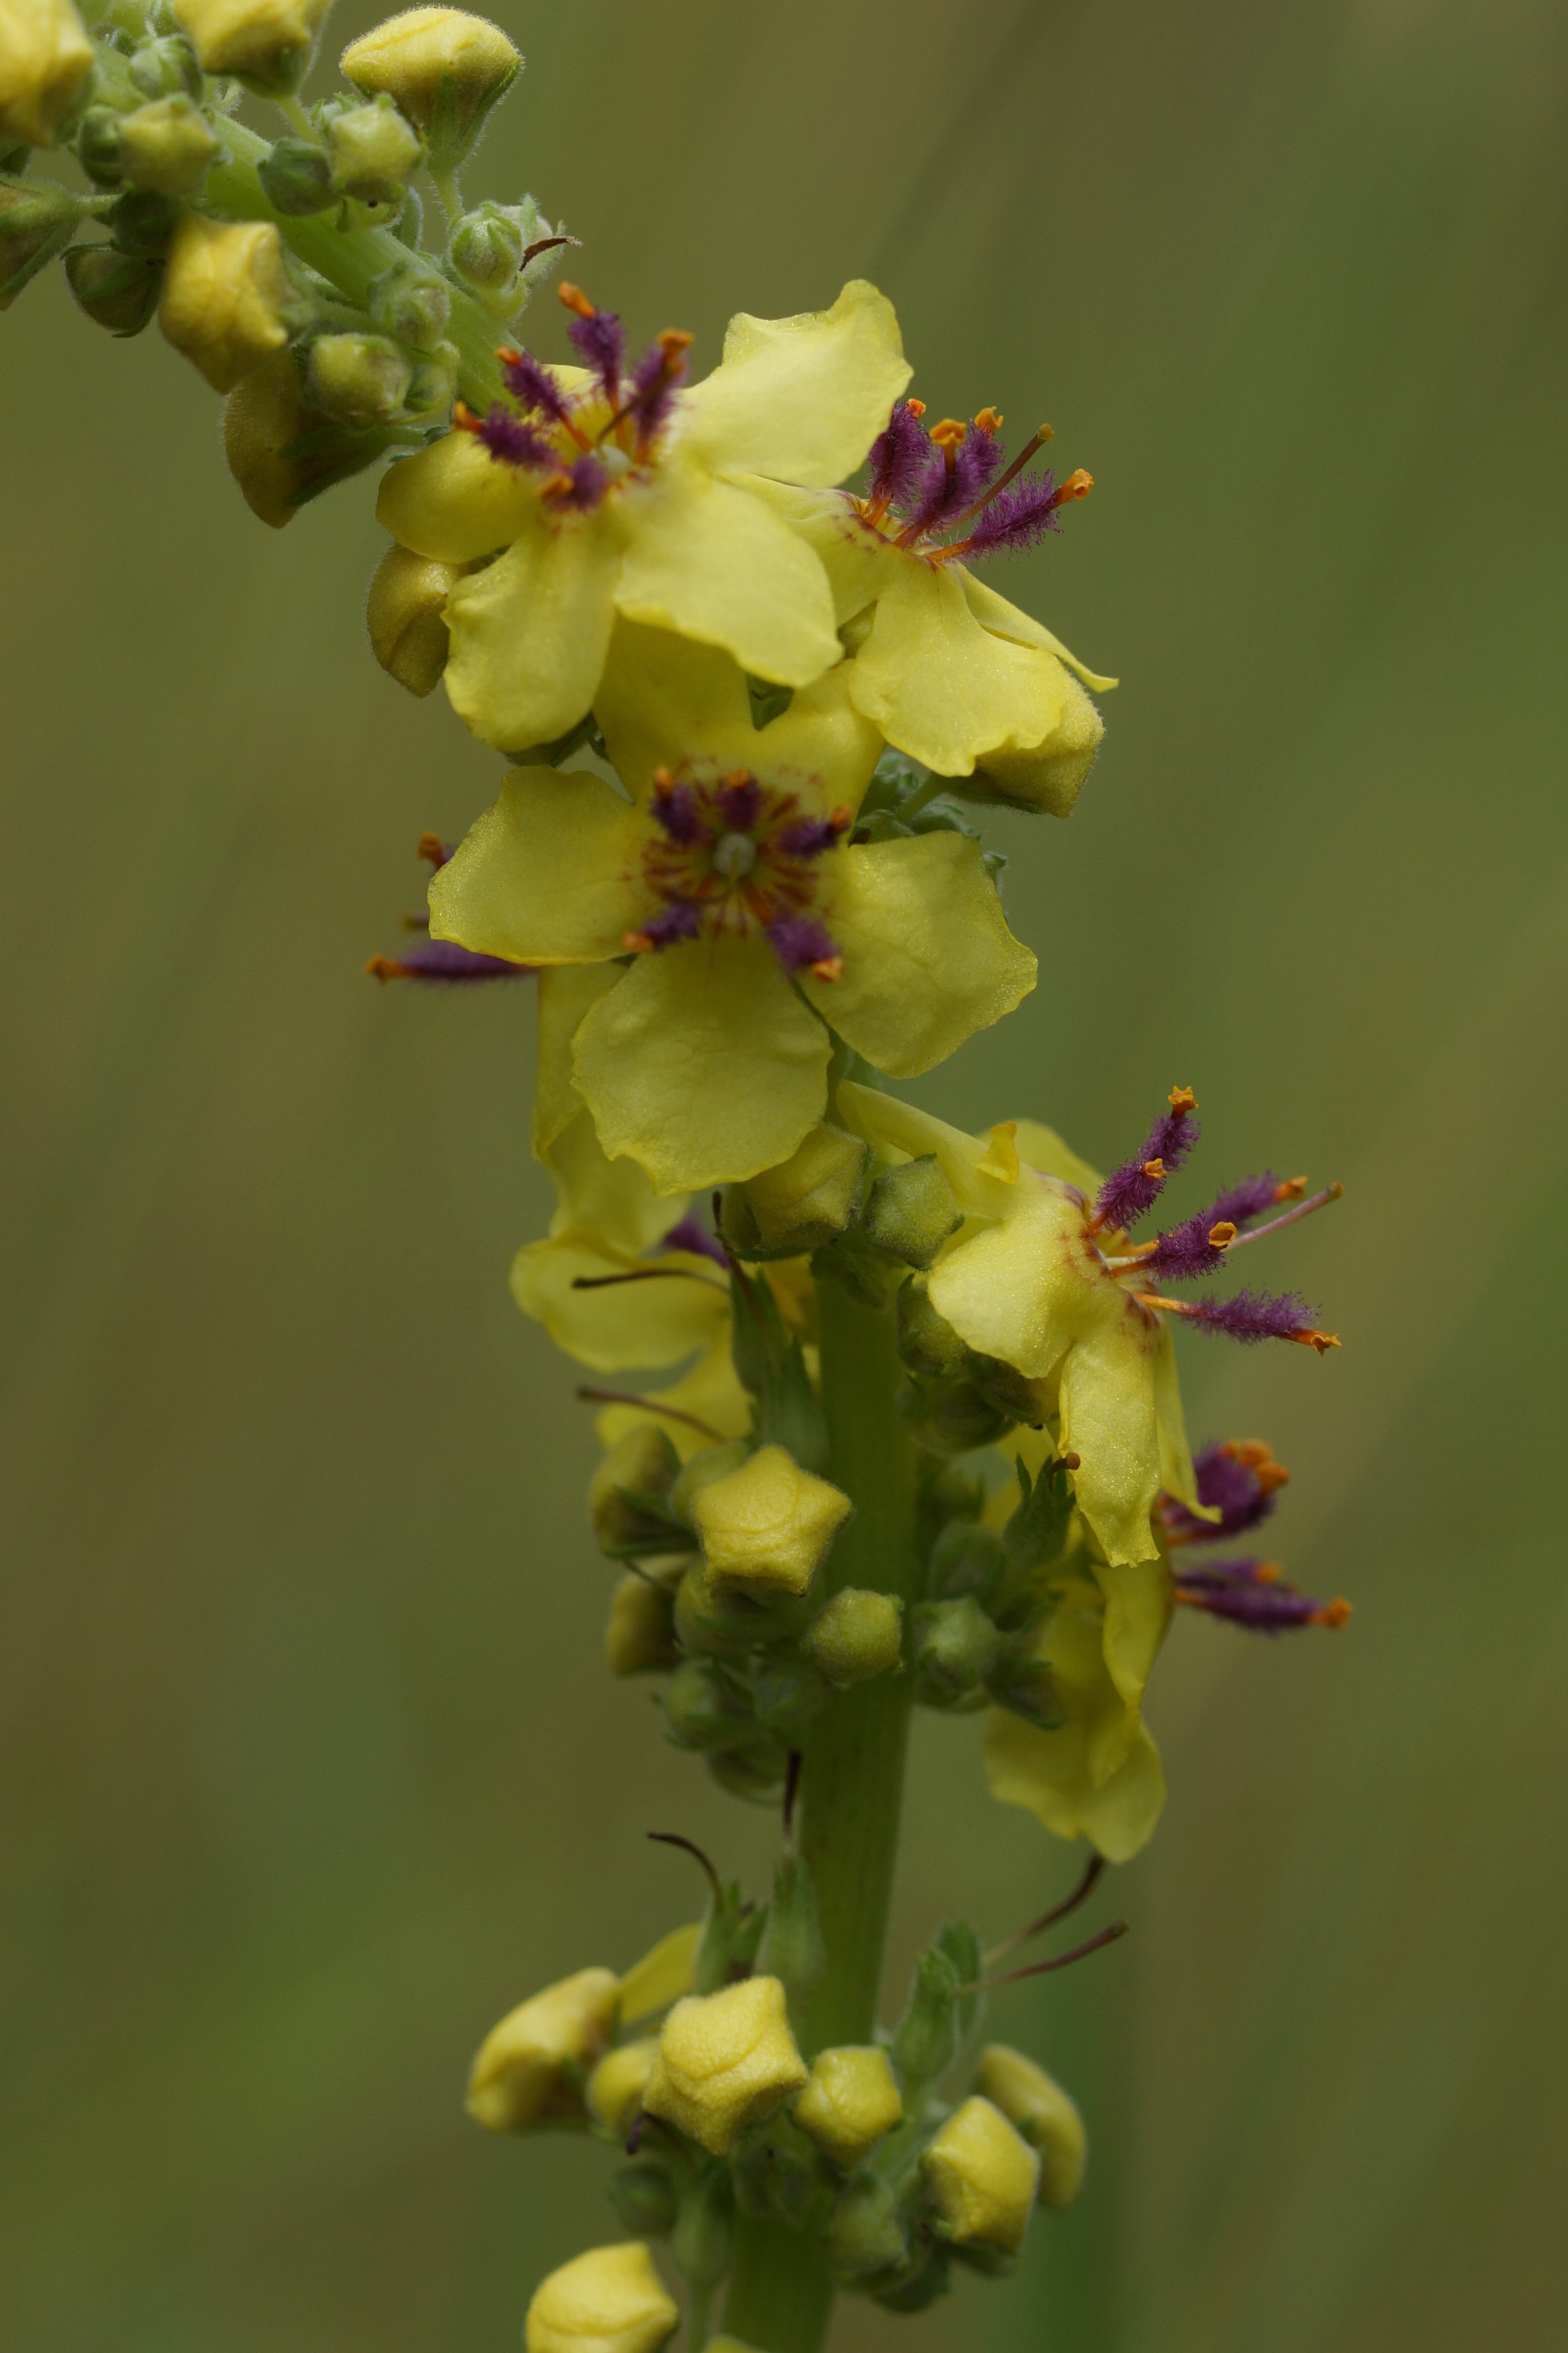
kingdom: Plantae
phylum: Tracheophyta
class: Magnoliopsida
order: Lamiales
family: Scrophulariaceae
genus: Verbascum
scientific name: Verbascum nigrum
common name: Mørk kongelys
